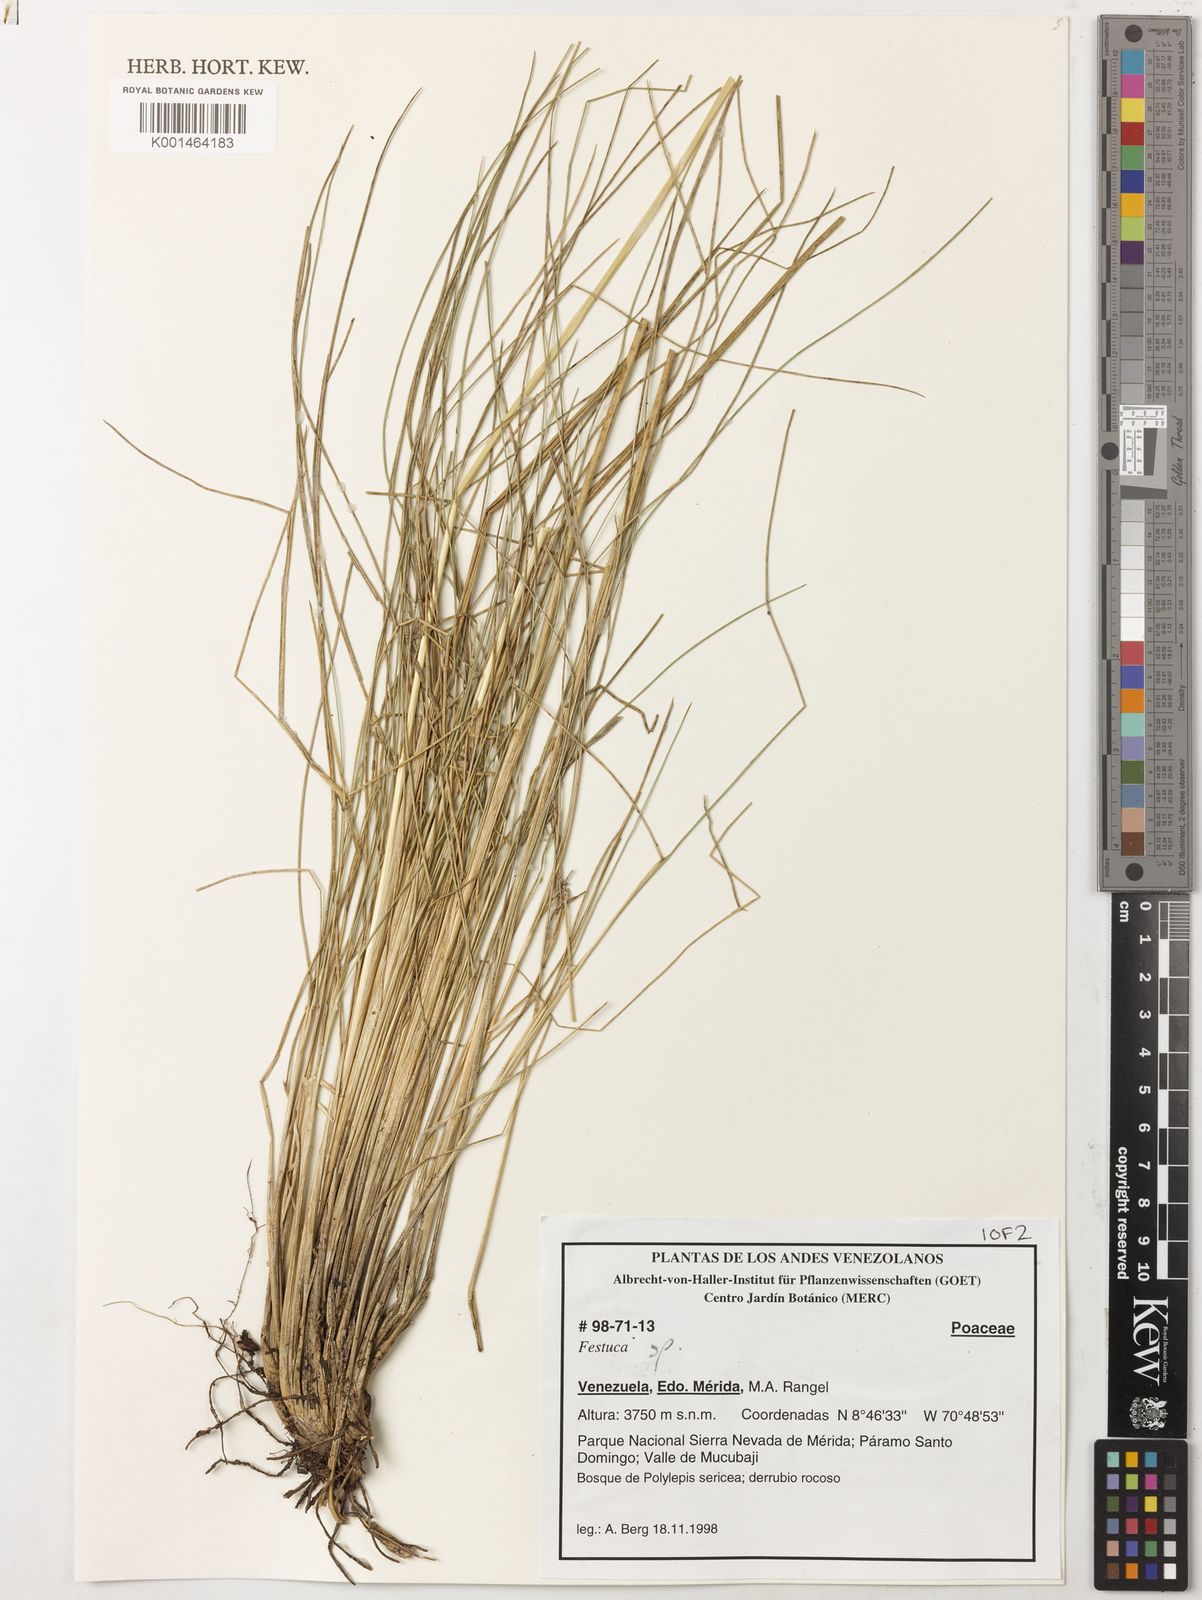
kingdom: Plantae
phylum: Tracheophyta
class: Liliopsida
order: Poales
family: Poaceae
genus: Festuca
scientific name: Festuca tolucensis
